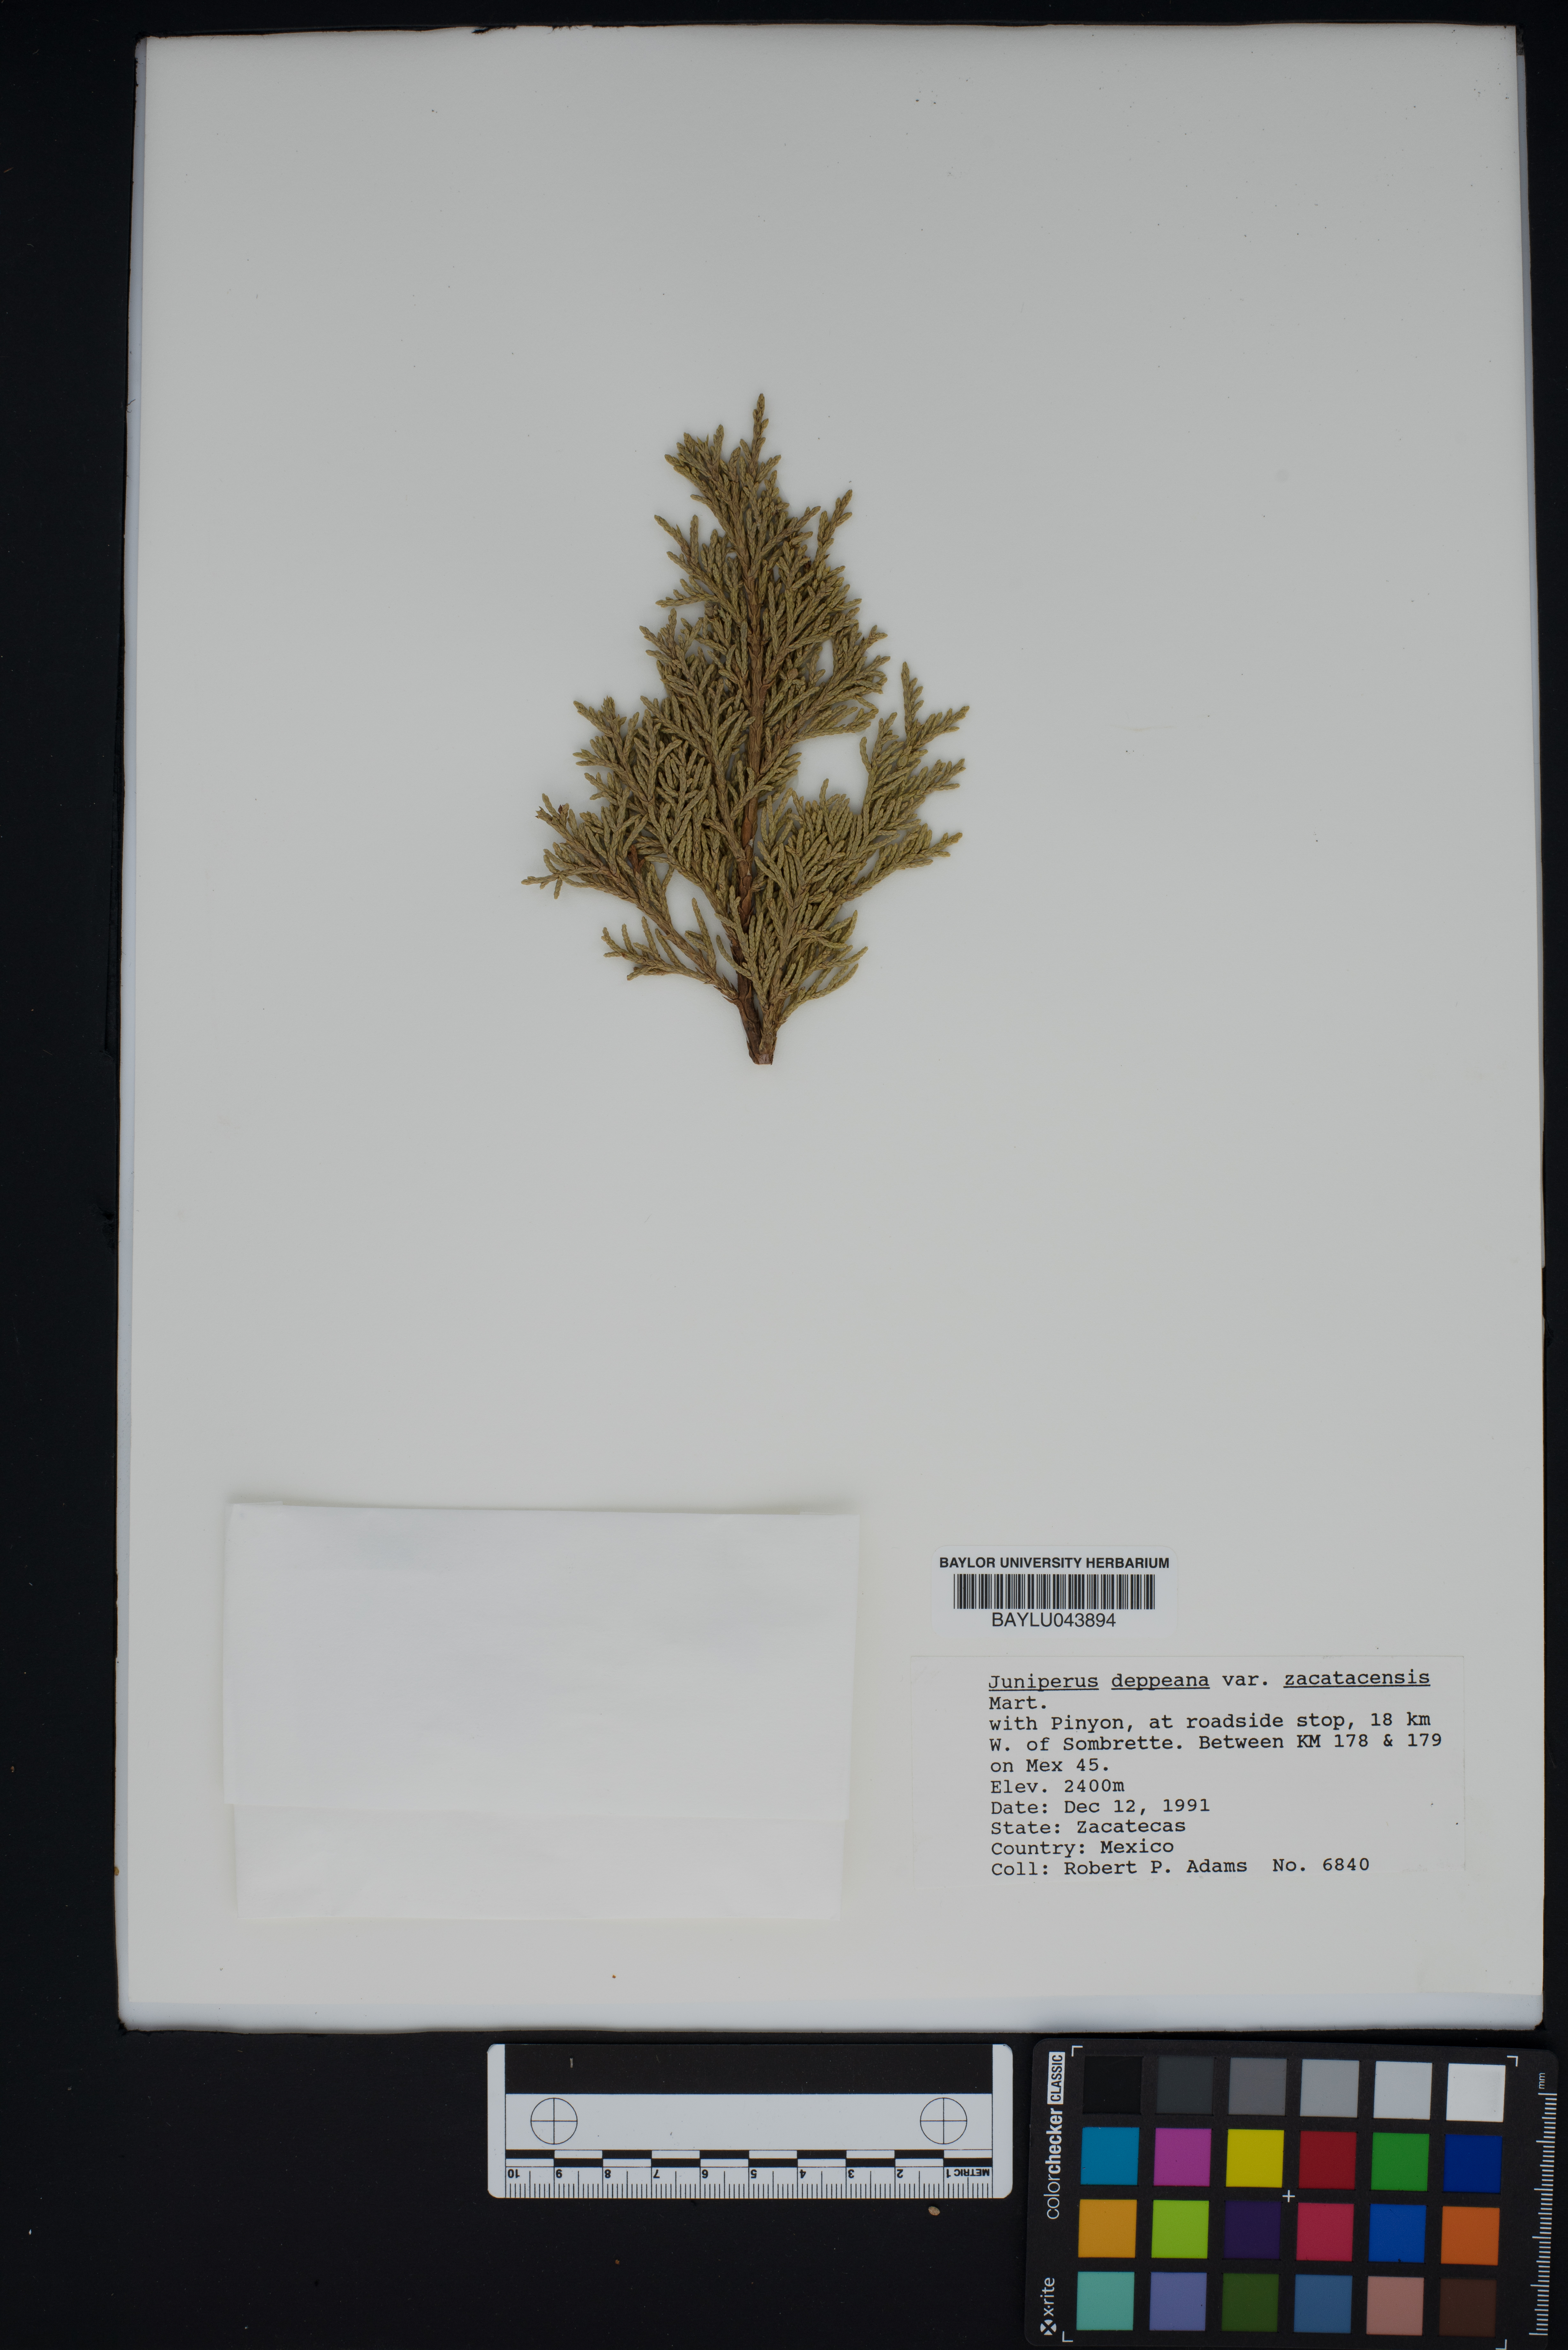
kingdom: Plantae
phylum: Tracheophyta
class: Pinopsida
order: Pinales
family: Cupressaceae
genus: Juniperus
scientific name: Juniperus deppeana
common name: Alligator juniper
